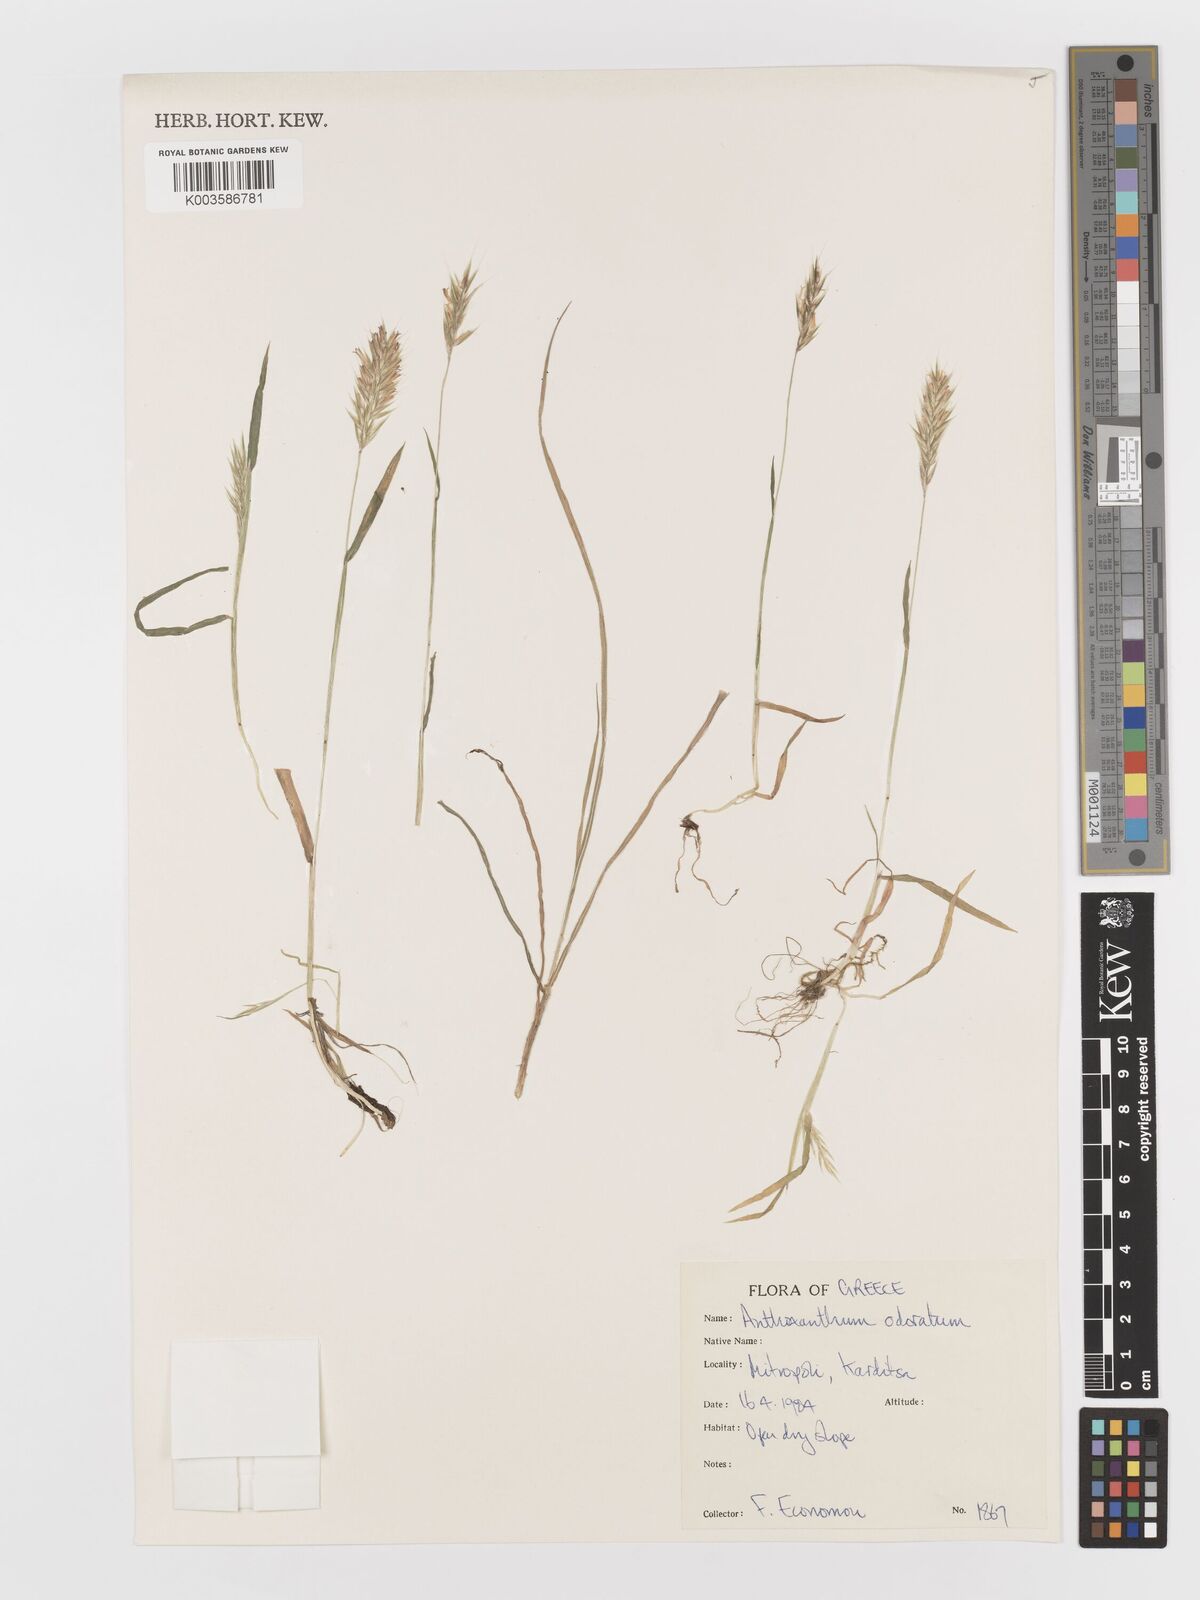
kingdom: Plantae
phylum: Tracheophyta
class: Liliopsida
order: Poales
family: Poaceae
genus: Anthoxanthum
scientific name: Anthoxanthum odoratum
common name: Sweet vernalgrass
